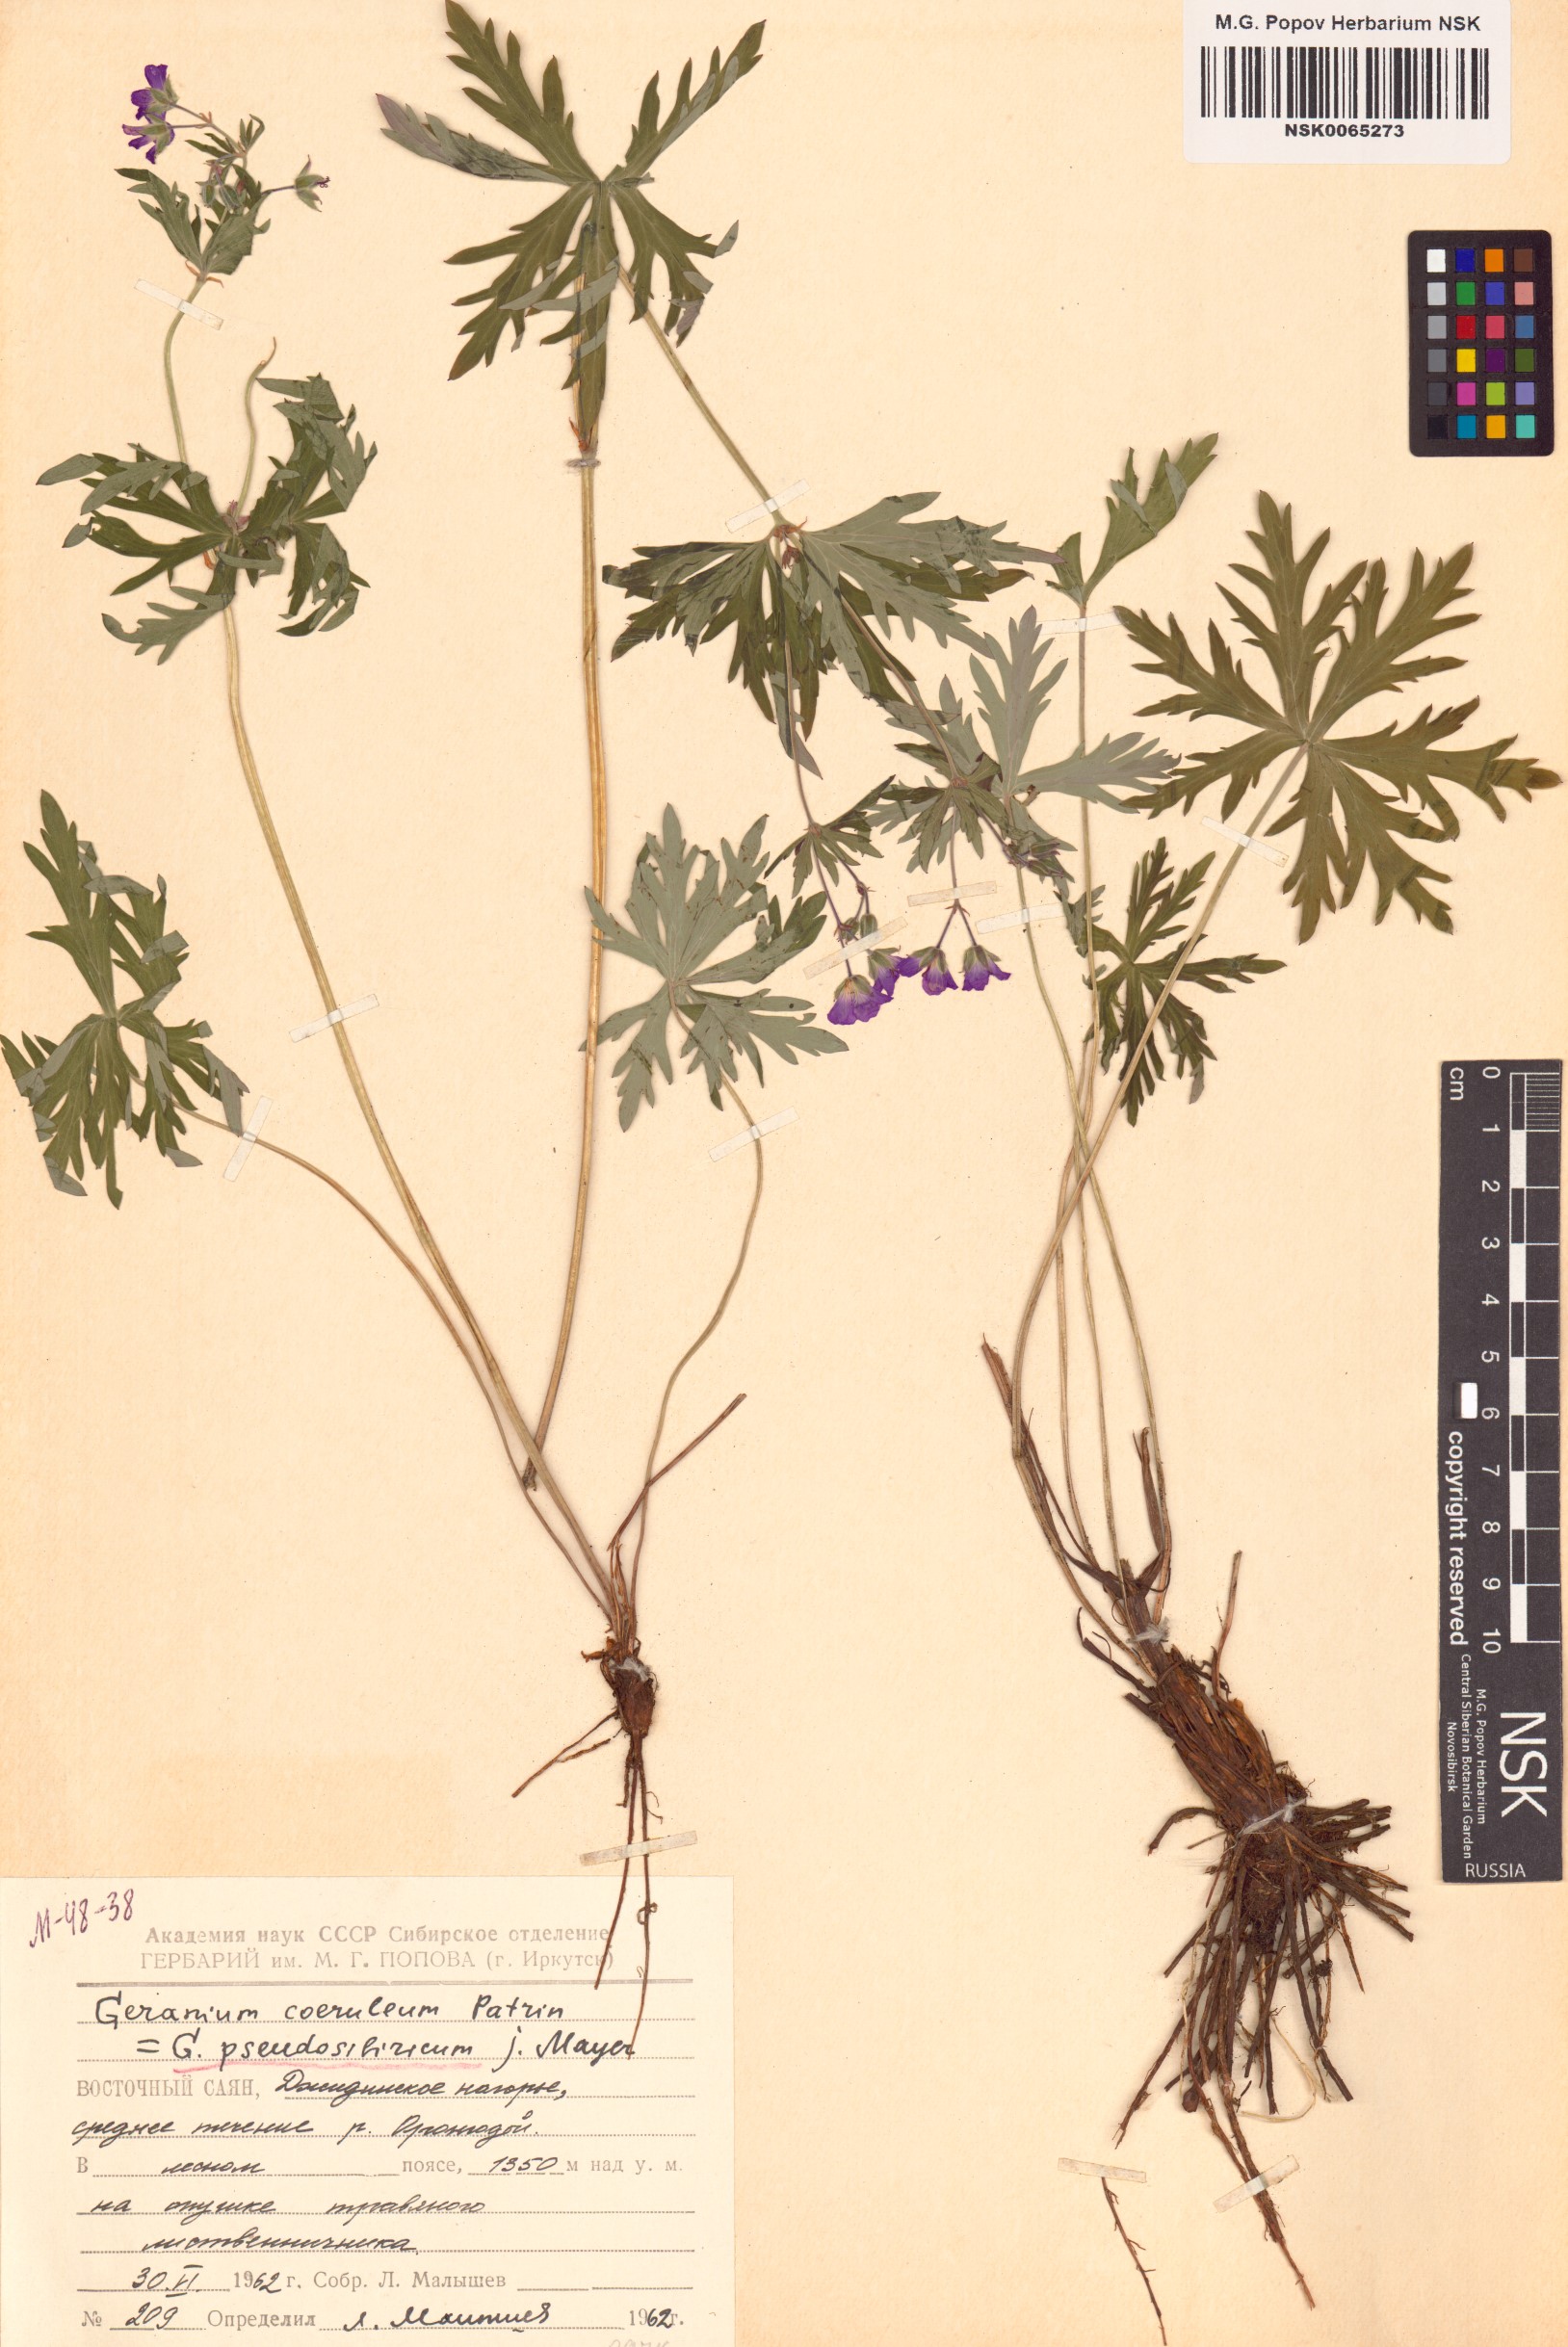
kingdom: Plantae
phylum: Tracheophyta
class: Magnoliopsida
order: Geraniales
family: Geraniaceae
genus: Geranium
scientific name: Geranium pseudosibiricum
